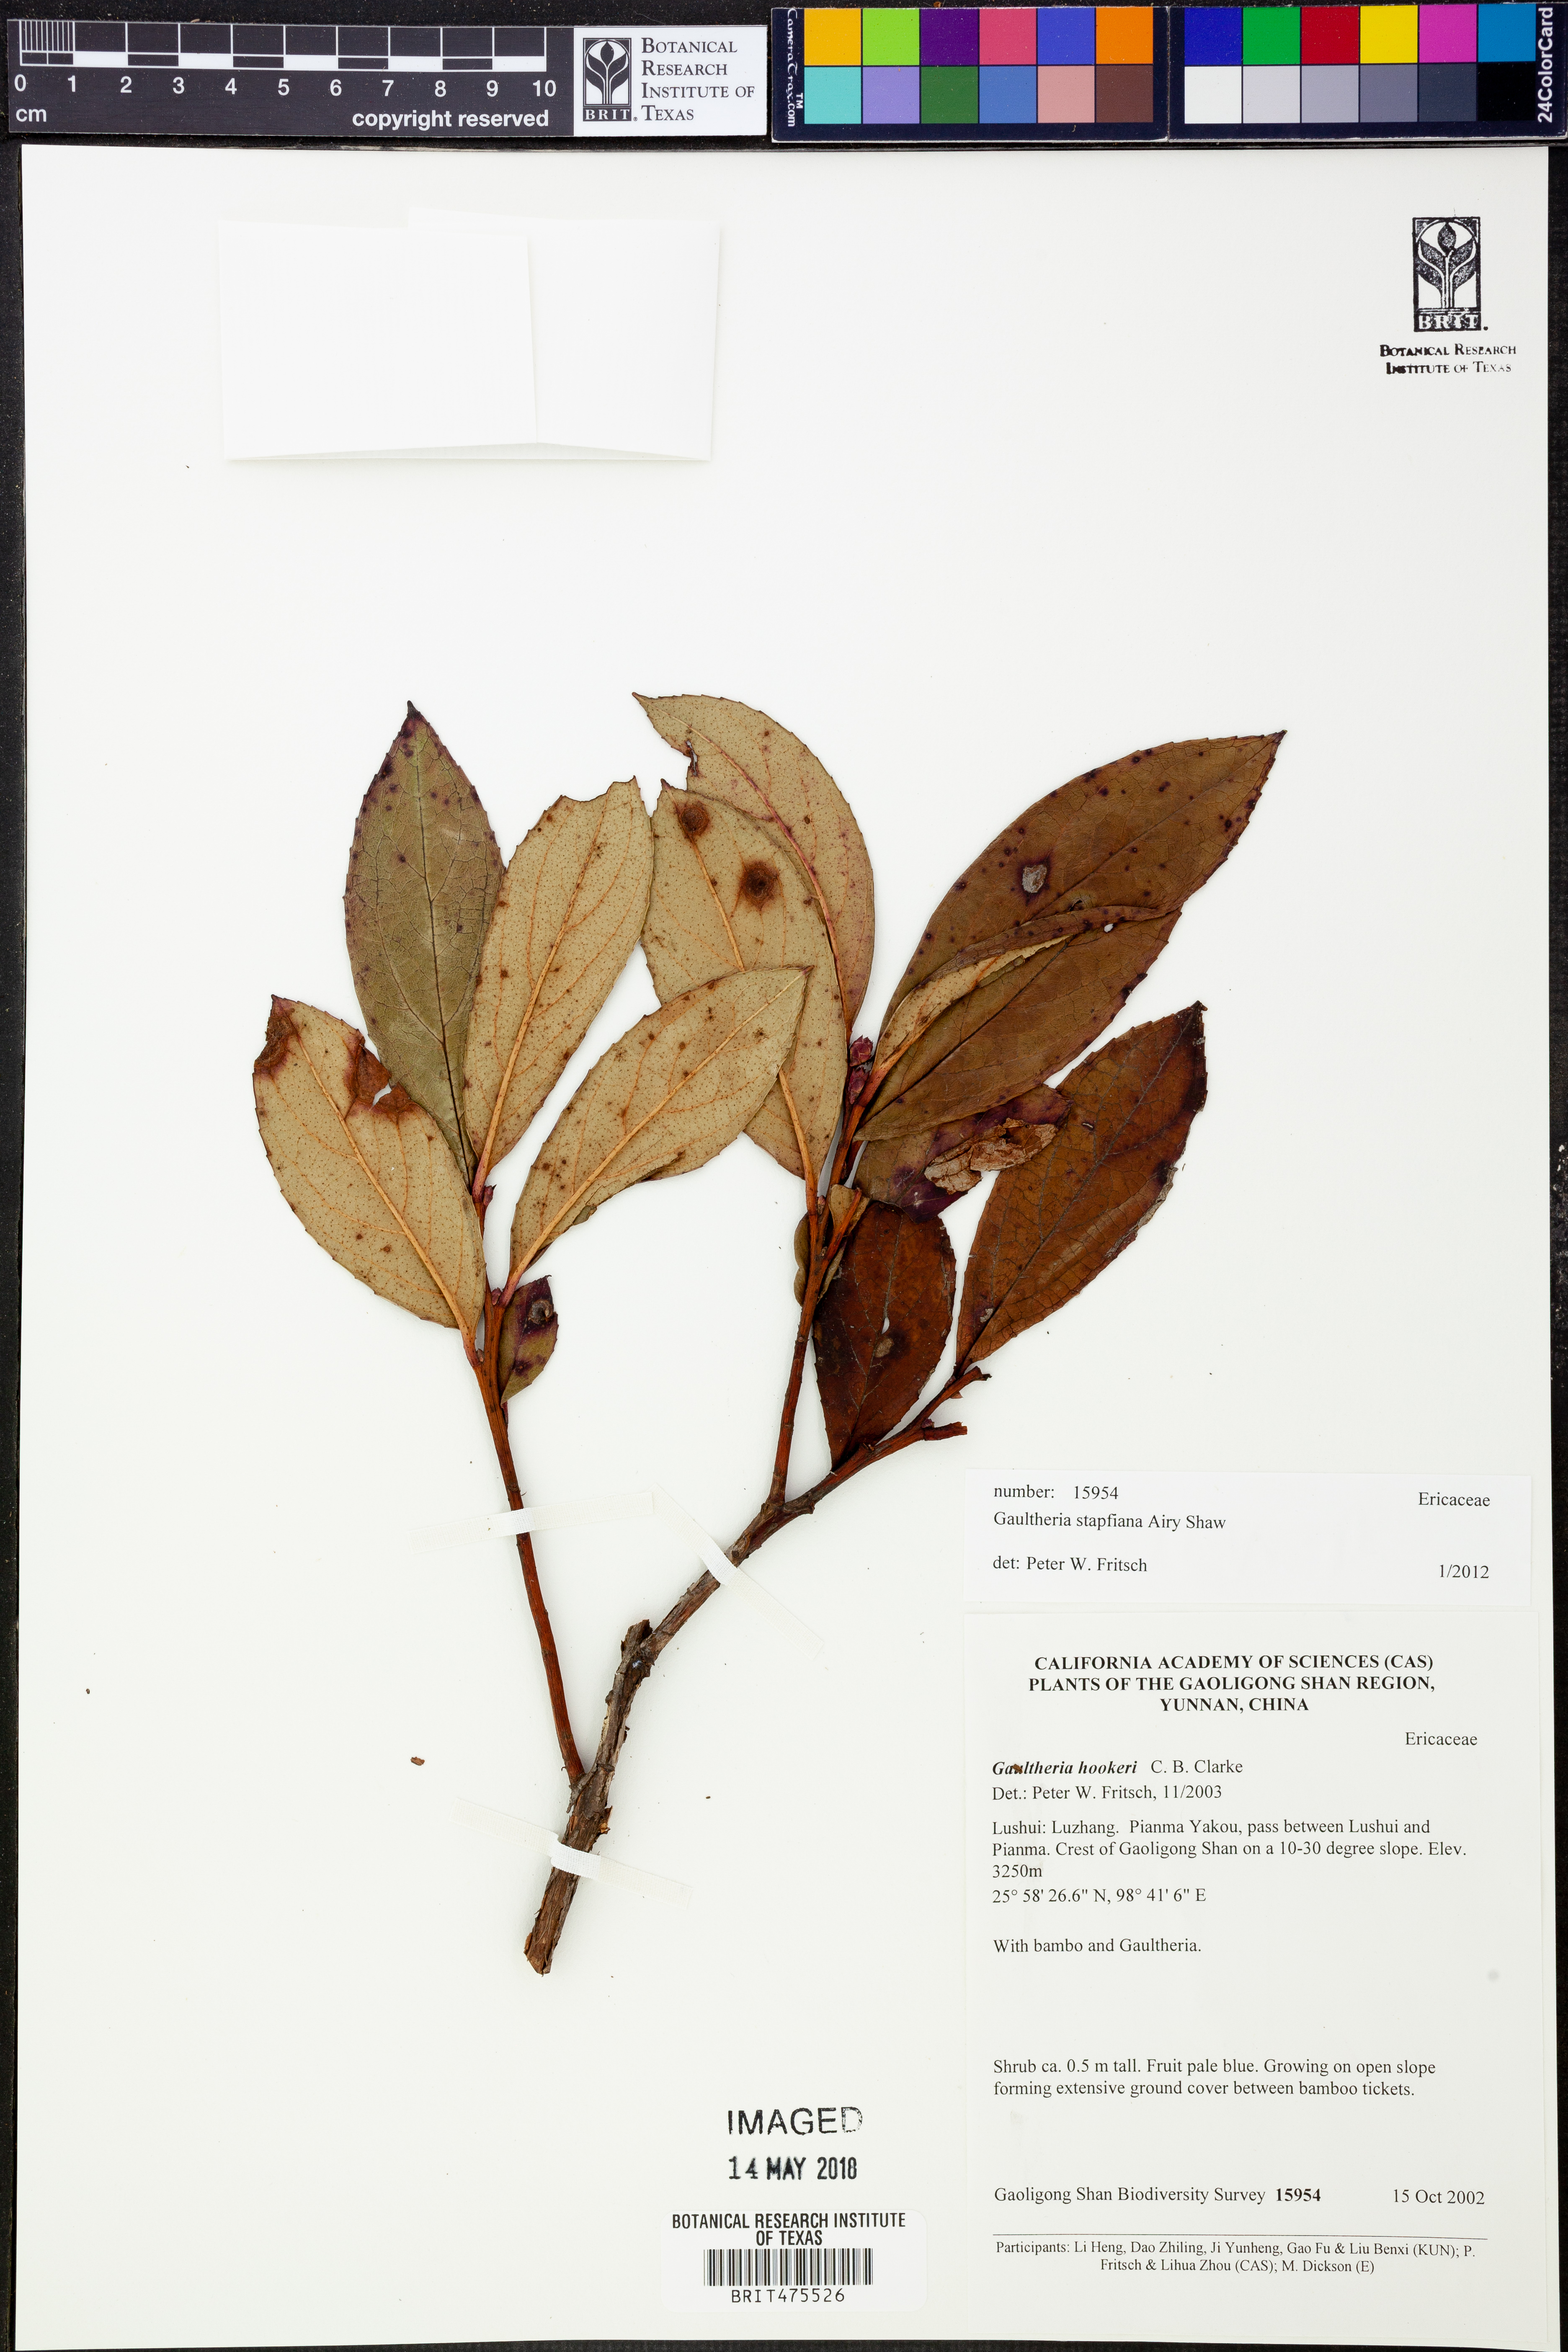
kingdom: Plantae
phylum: Tracheophyta
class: Magnoliopsida
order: Ericales
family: Ericaceae
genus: Gaultheria
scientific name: Gaultheria stapfiana
